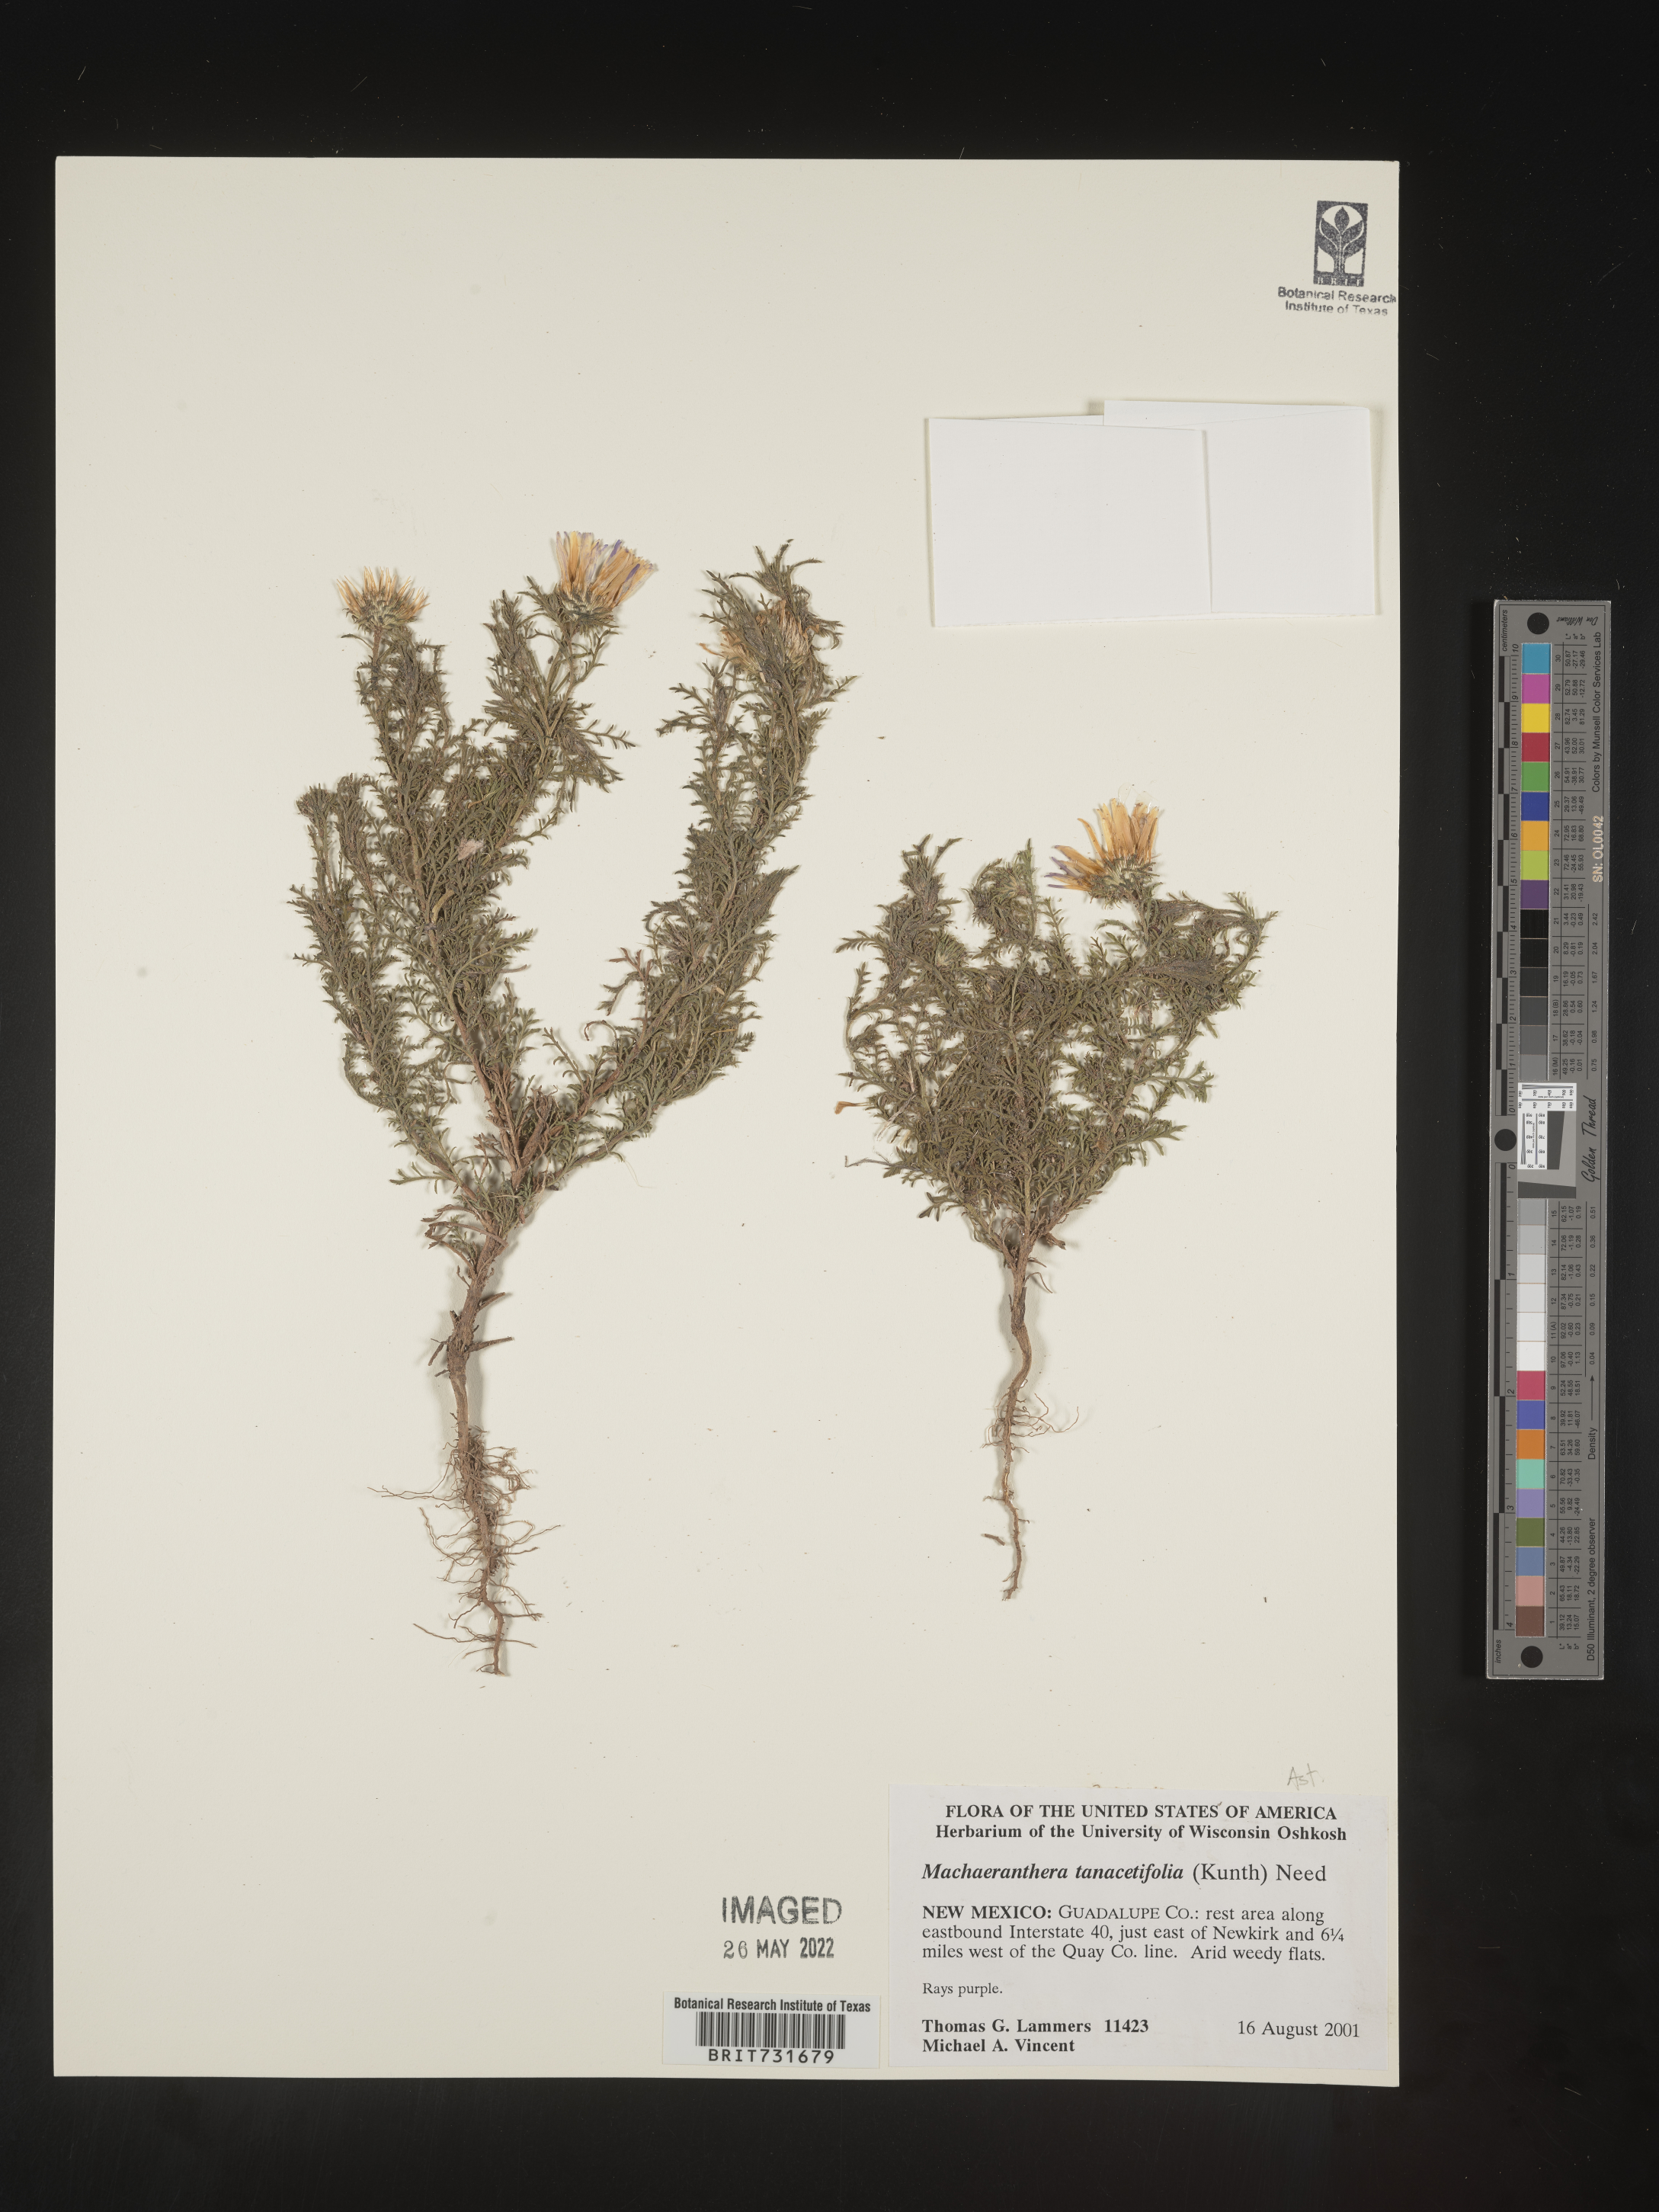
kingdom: Plantae
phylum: Tracheophyta
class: Magnoliopsida
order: Asterales
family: Asteraceae
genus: Machaeranthera
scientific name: Machaeranthera tanacetifolia
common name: Tansy-aster
